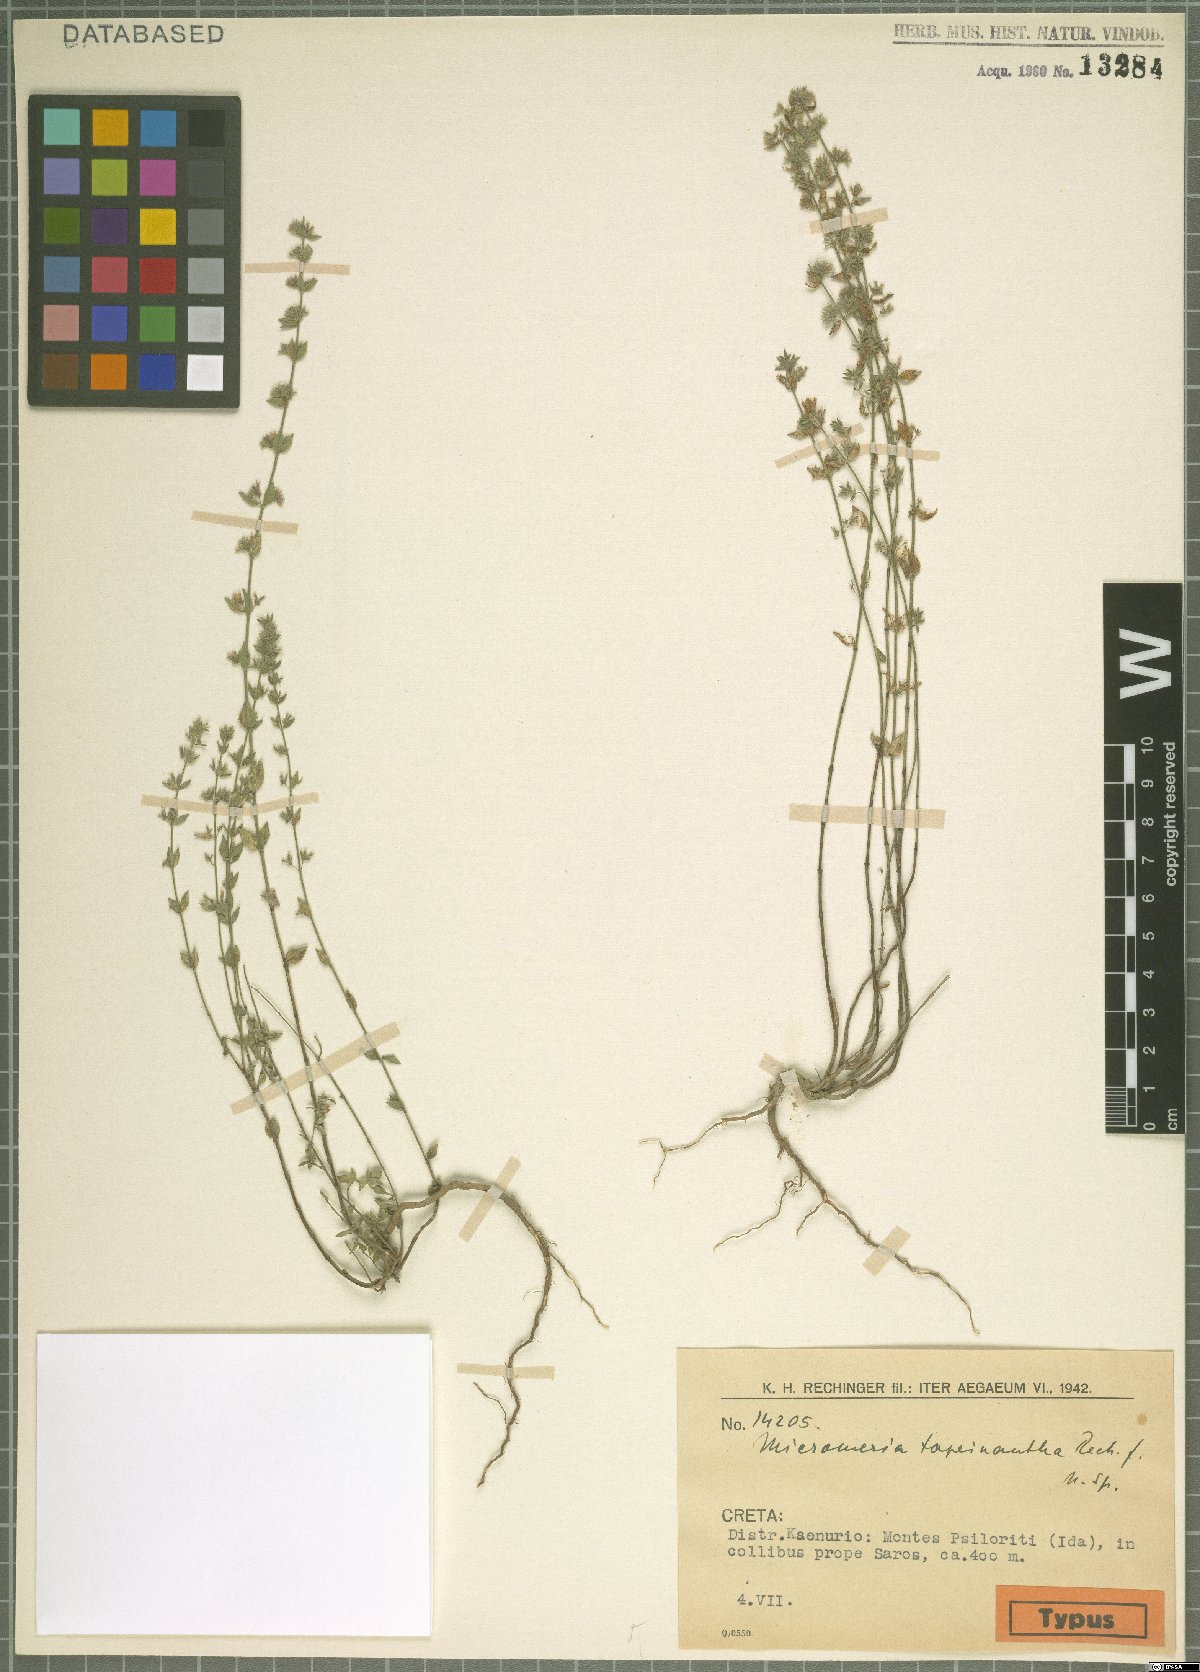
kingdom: Plantae
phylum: Tracheophyta
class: Magnoliopsida
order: Lamiales
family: Lamiaceae
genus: Micromeria
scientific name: Micromeria hybrida
